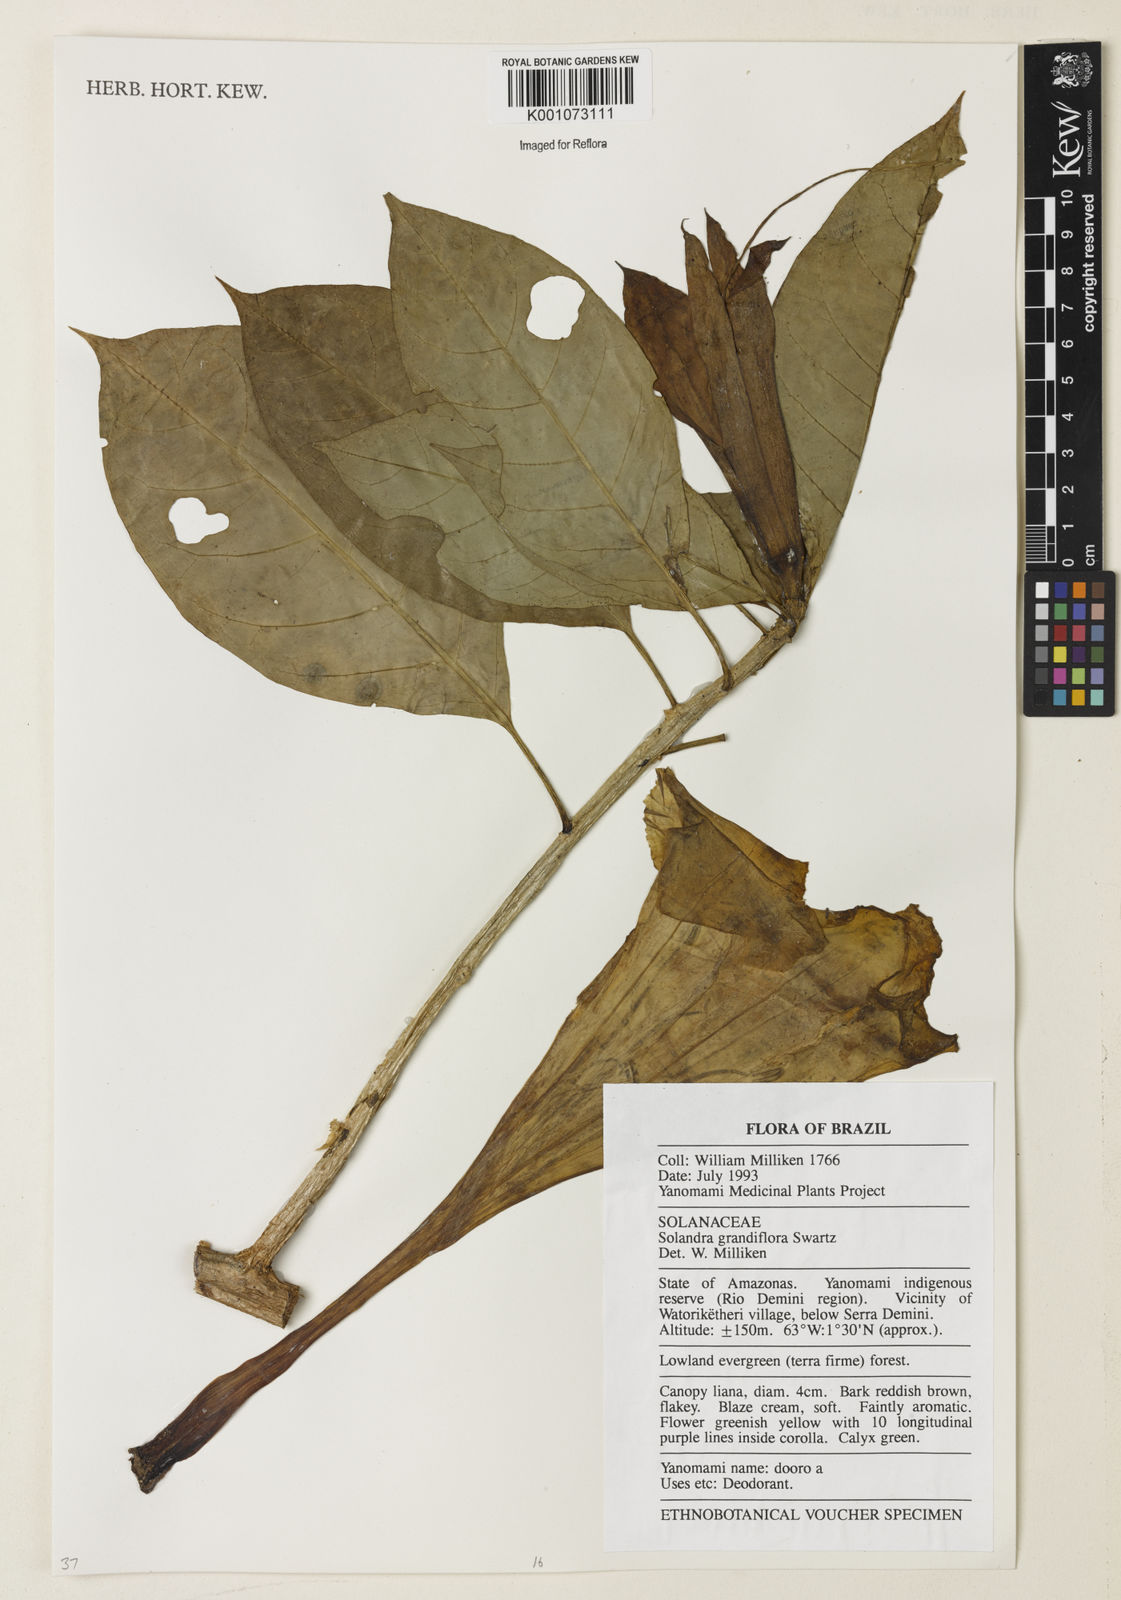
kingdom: Plantae
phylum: Tracheophyta
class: Magnoliopsida
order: Solanales
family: Solanaceae
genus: Solandra
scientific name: Solandra grandiflora
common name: Showy chalicevine
